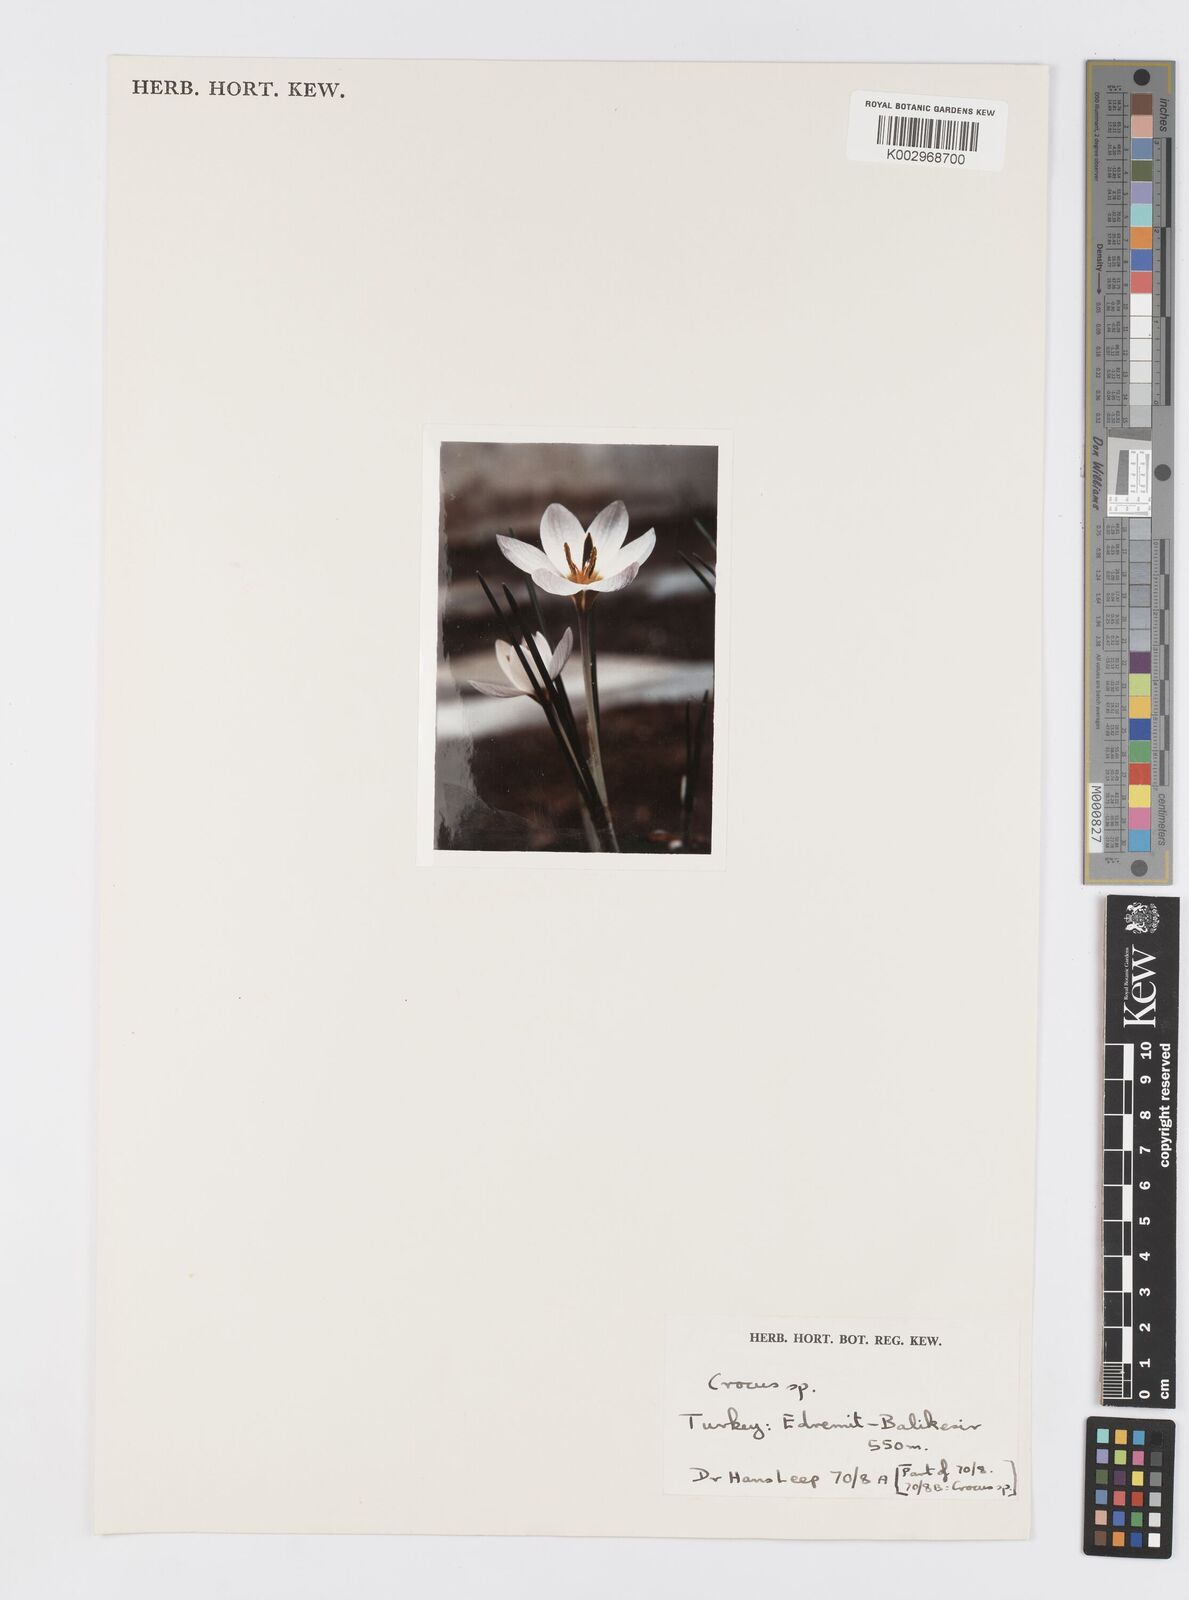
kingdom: Plantae
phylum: Tracheophyta
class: Liliopsida
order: Asparagales
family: Iridaceae
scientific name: Iridaceae
